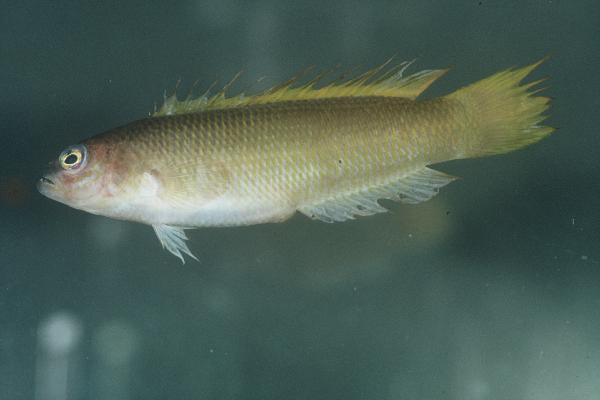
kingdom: Animalia
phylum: Chordata
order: Perciformes
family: Pseudochromidae
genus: Pseudochromis
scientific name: Pseudochromis natalensis
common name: Natal dottyback
